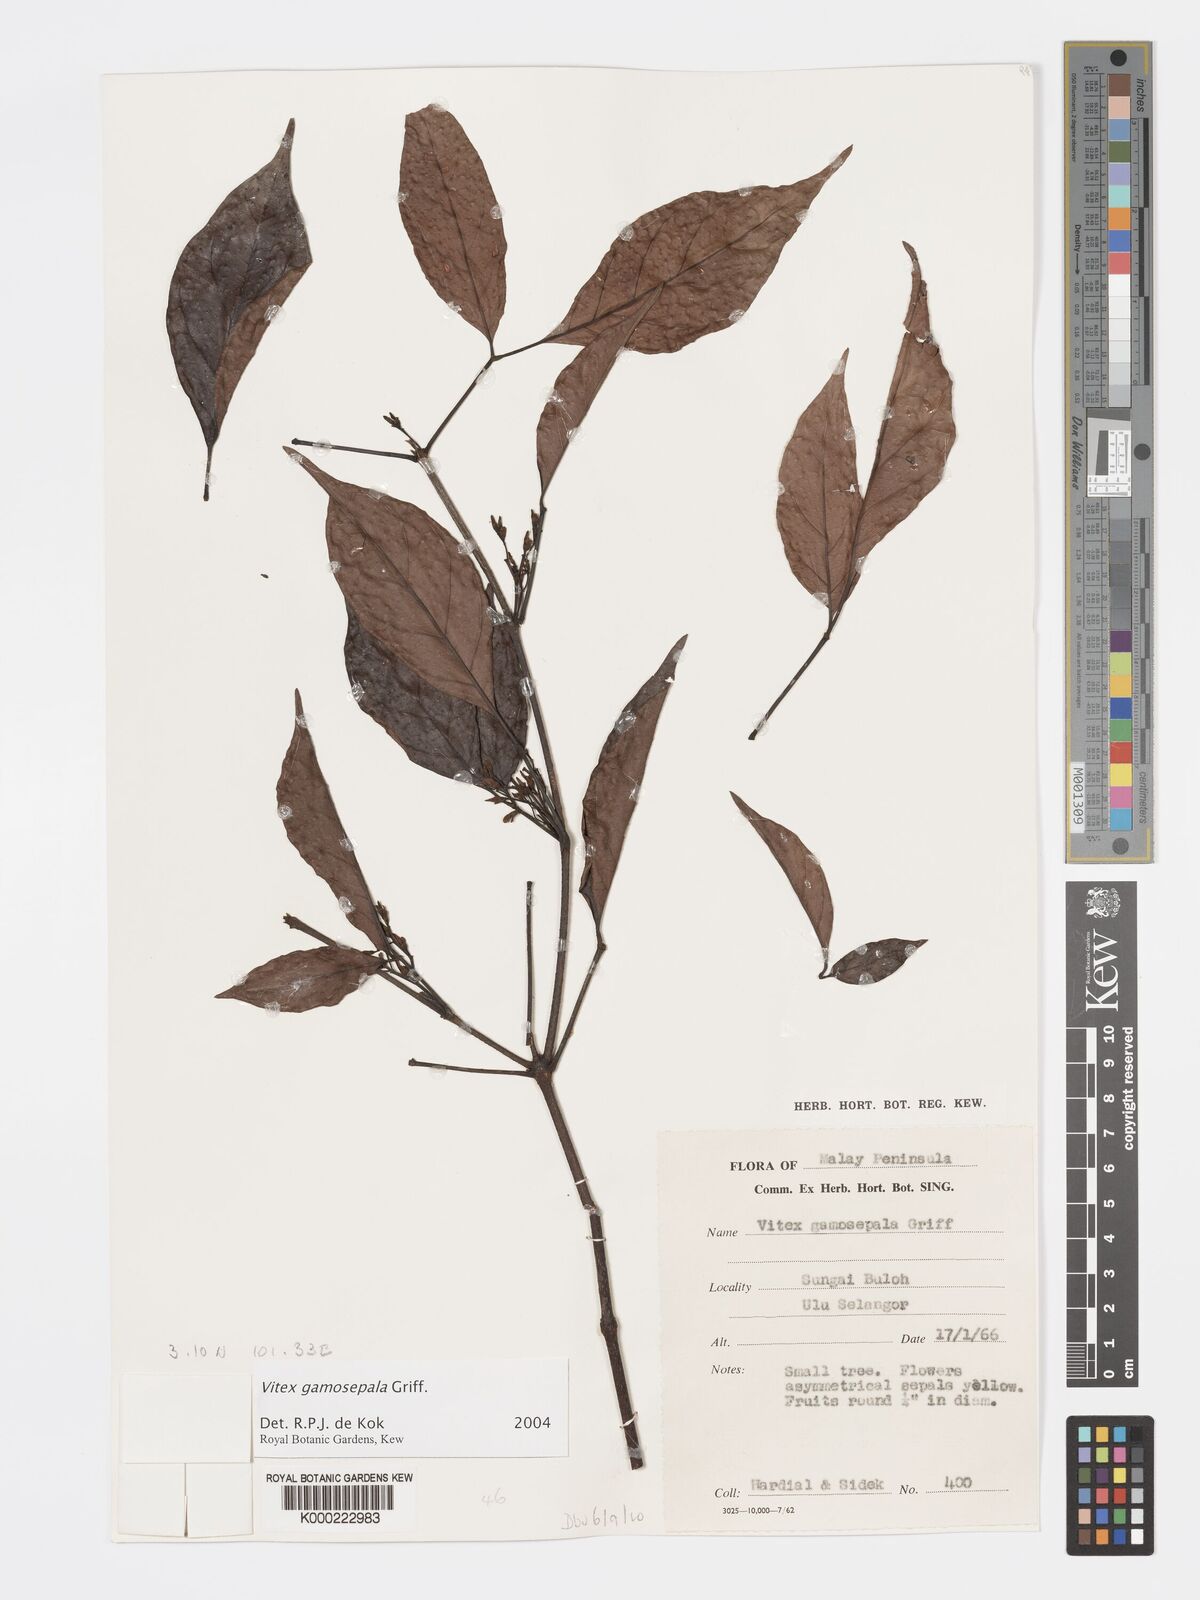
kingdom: Plantae
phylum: Tracheophyta
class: Magnoliopsida
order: Lamiales
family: Lamiaceae
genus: Vitex
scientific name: Vitex gamosepala
